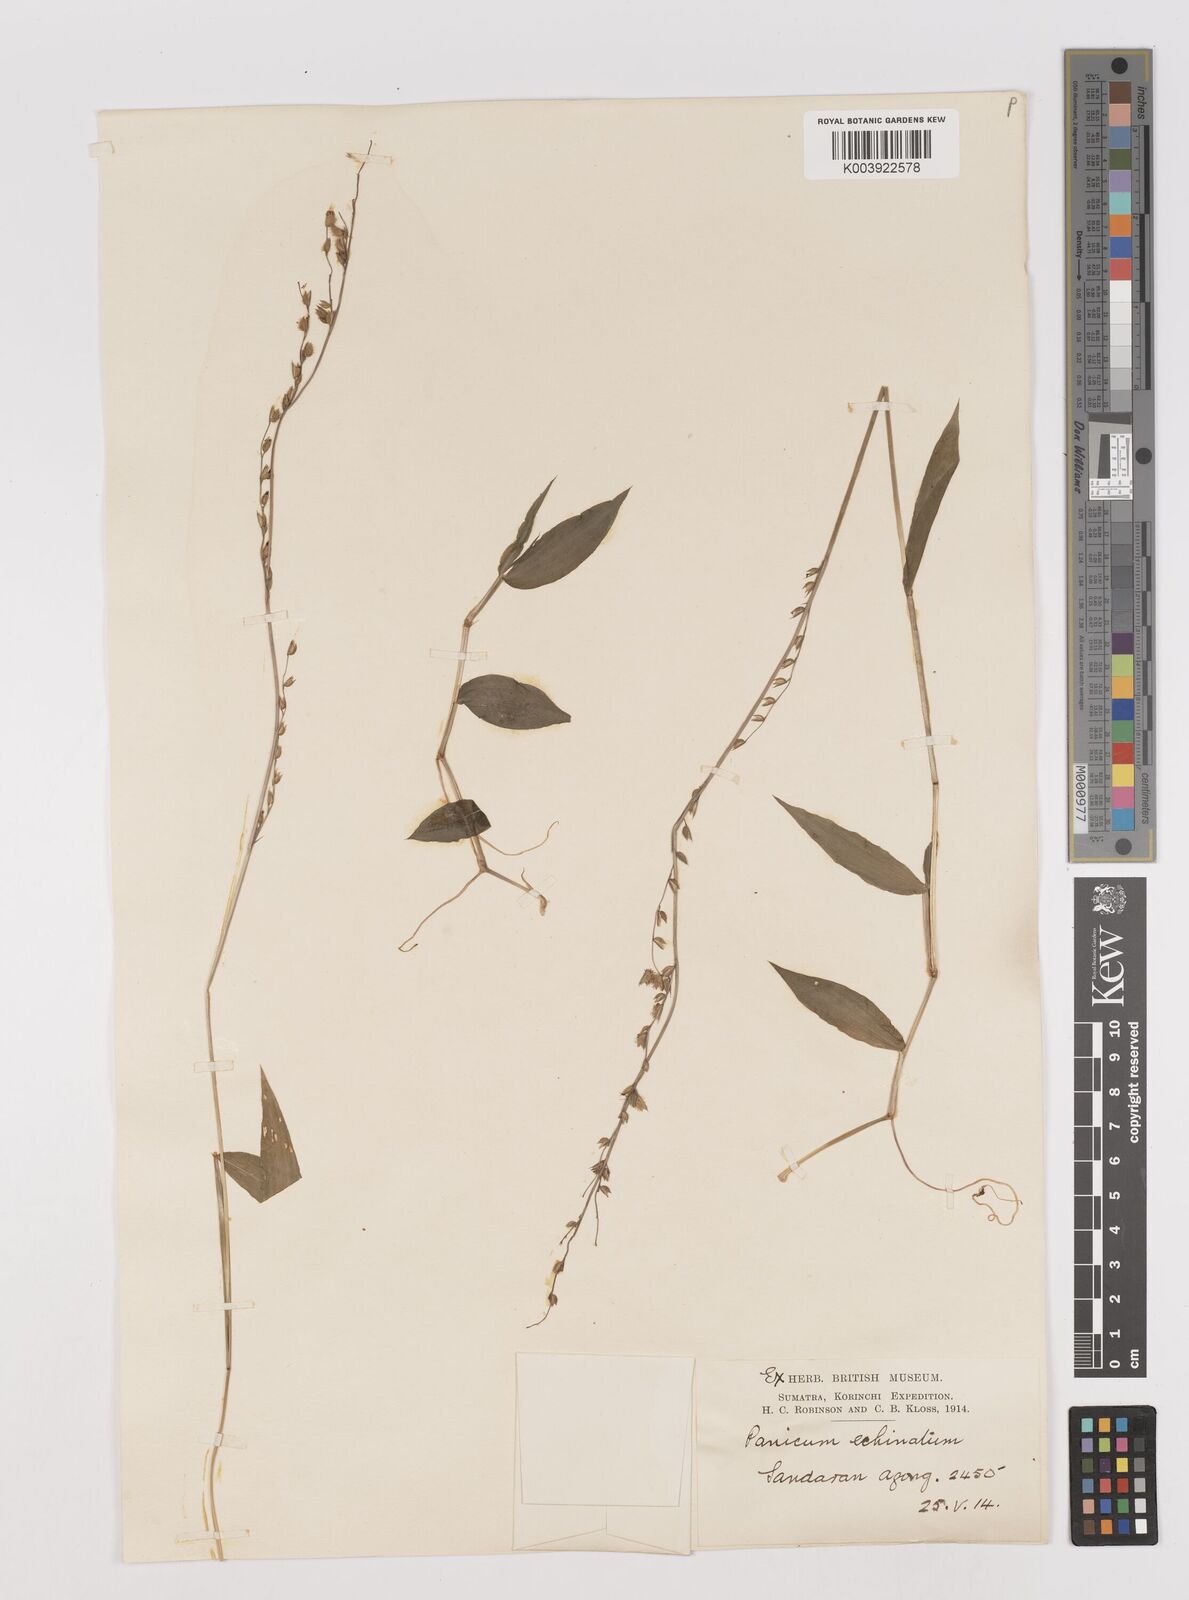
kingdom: Plantae
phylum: Tracheophyta
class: Liliopsida
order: Poales
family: Poaceae
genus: Pseudechinolaena
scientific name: Pseudechinolaena polystachya
